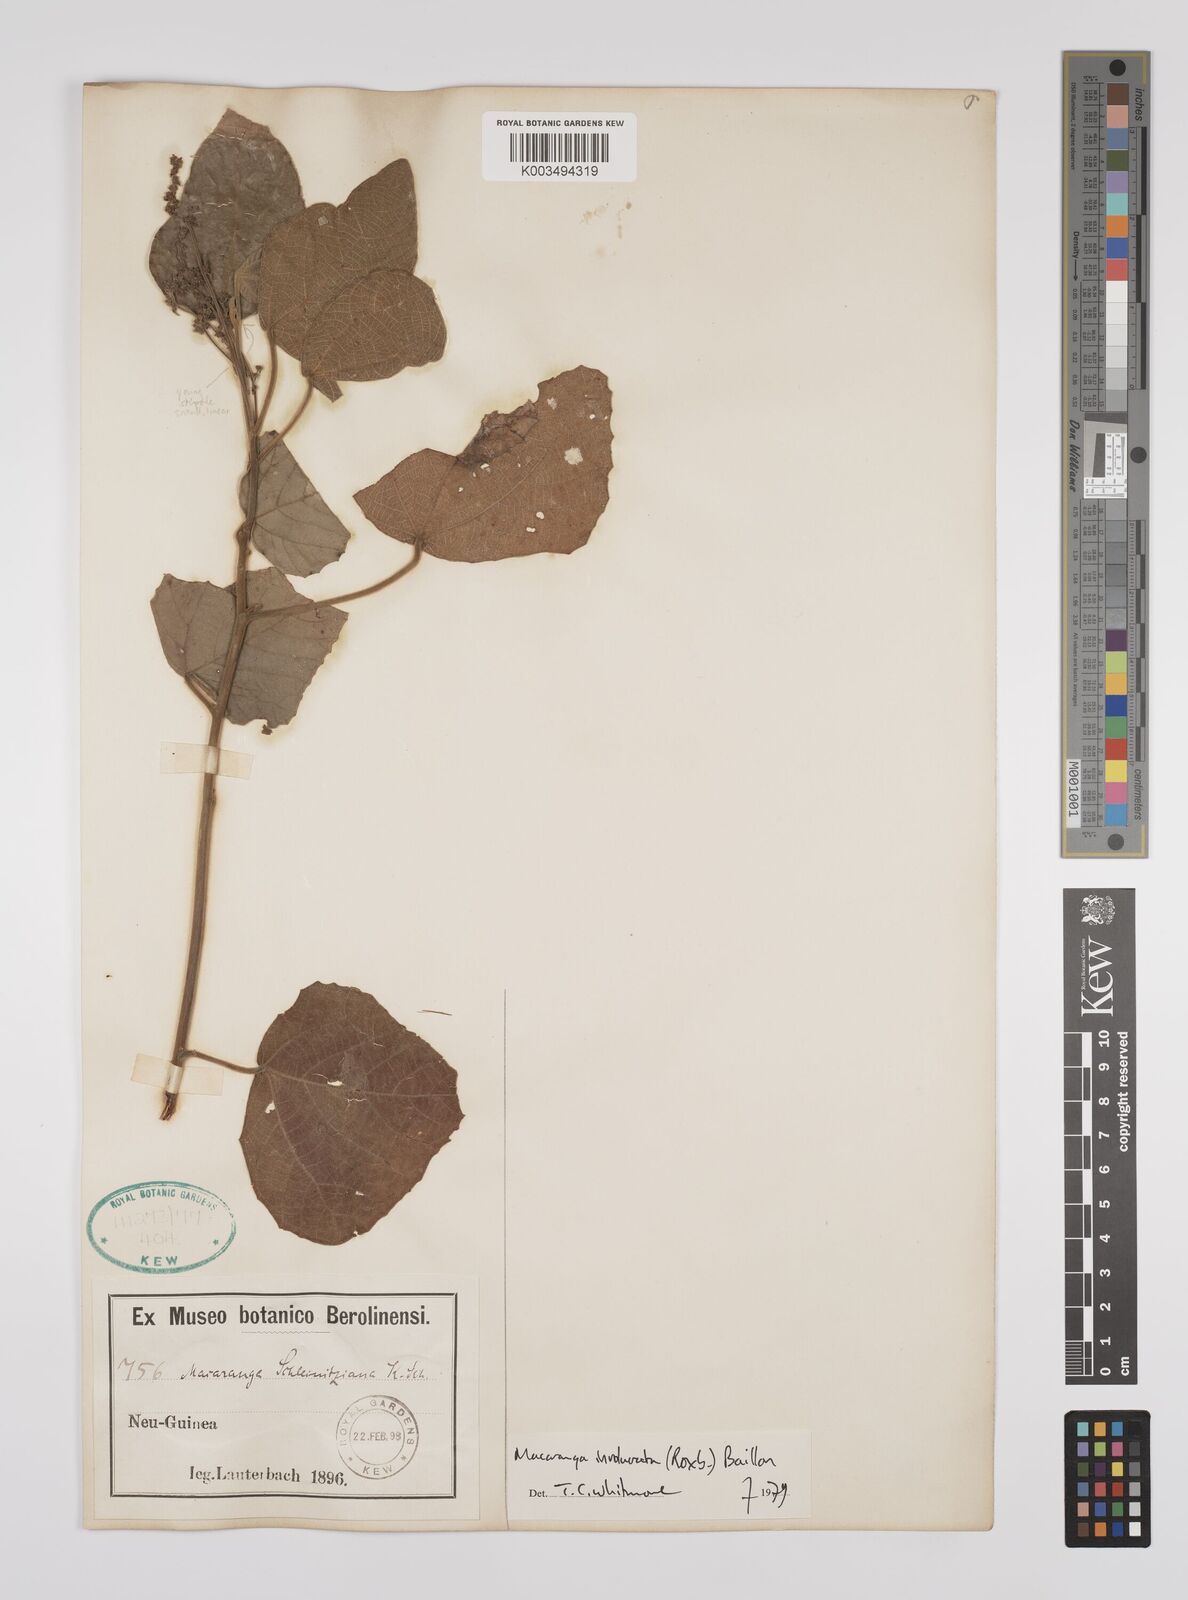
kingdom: Plantae
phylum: Tracheophyta
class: Magnoliopsida
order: Malpighiales
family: Euphorbiaceae
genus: Macaranga
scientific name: Macaranga involucrata
